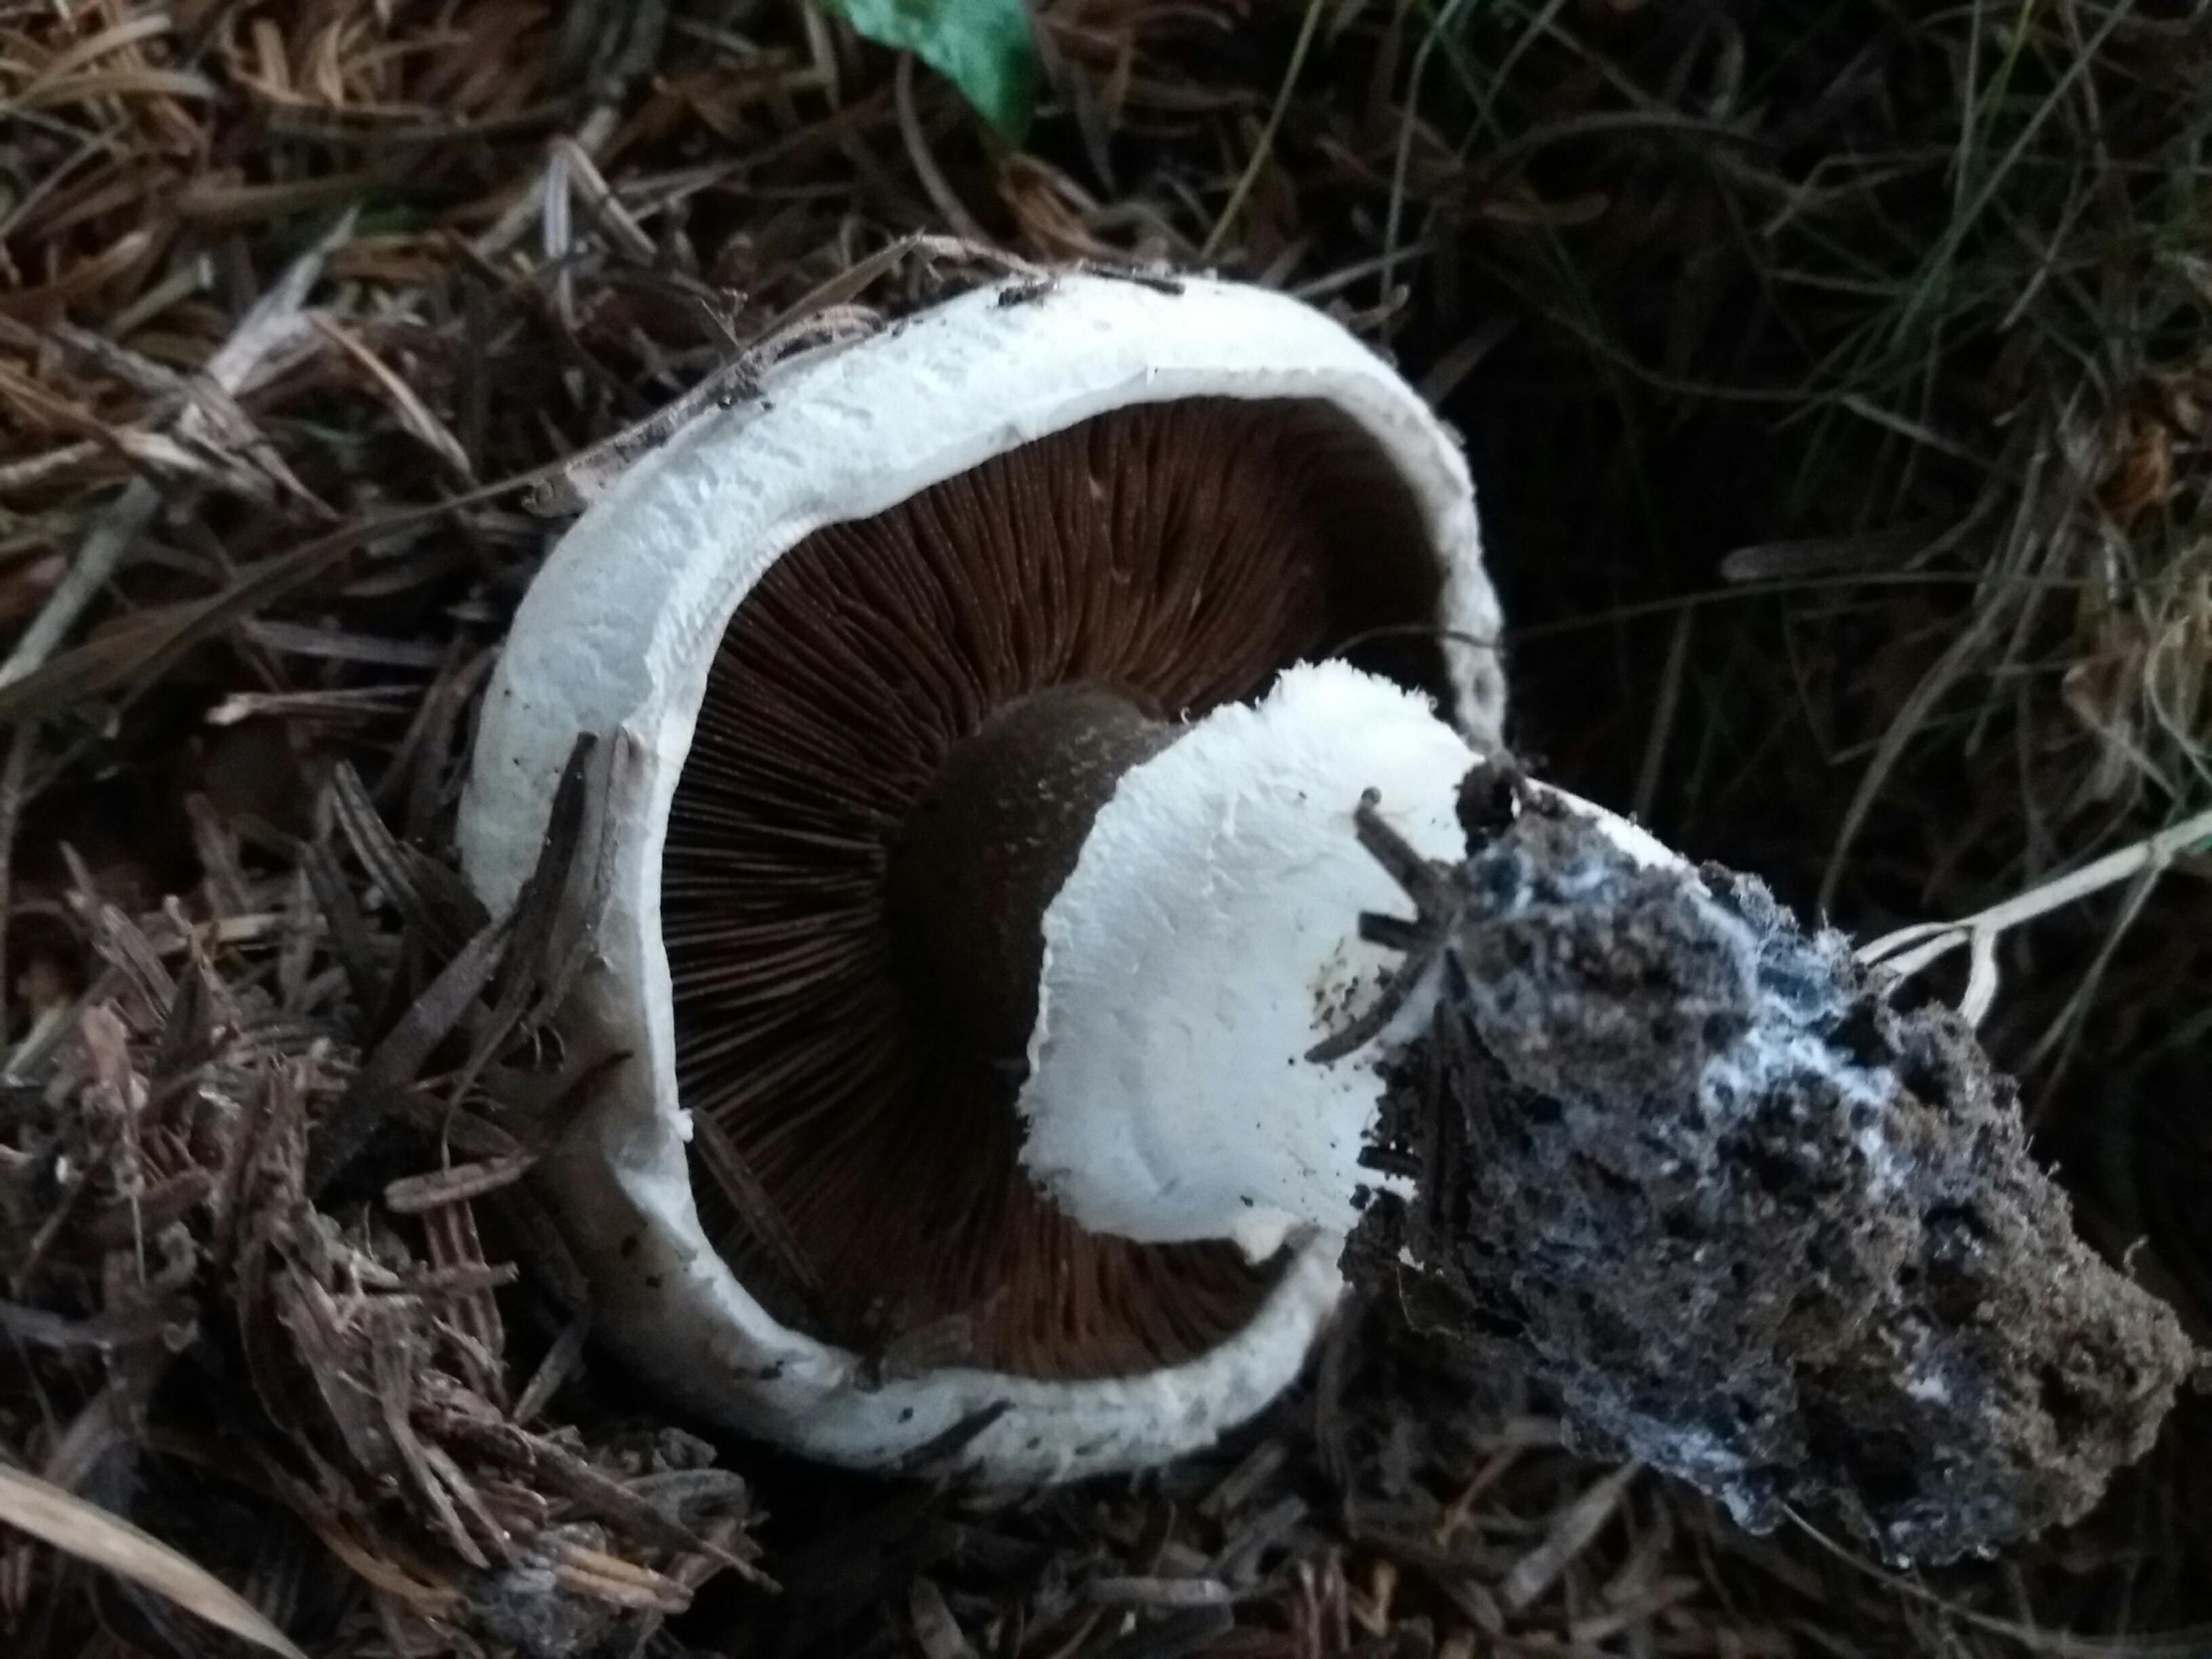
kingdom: Fungi
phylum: Basidiomycota
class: Agaricomycetes
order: Agaricales
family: Agaricaceae
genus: Agaricus
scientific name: Agaricus
